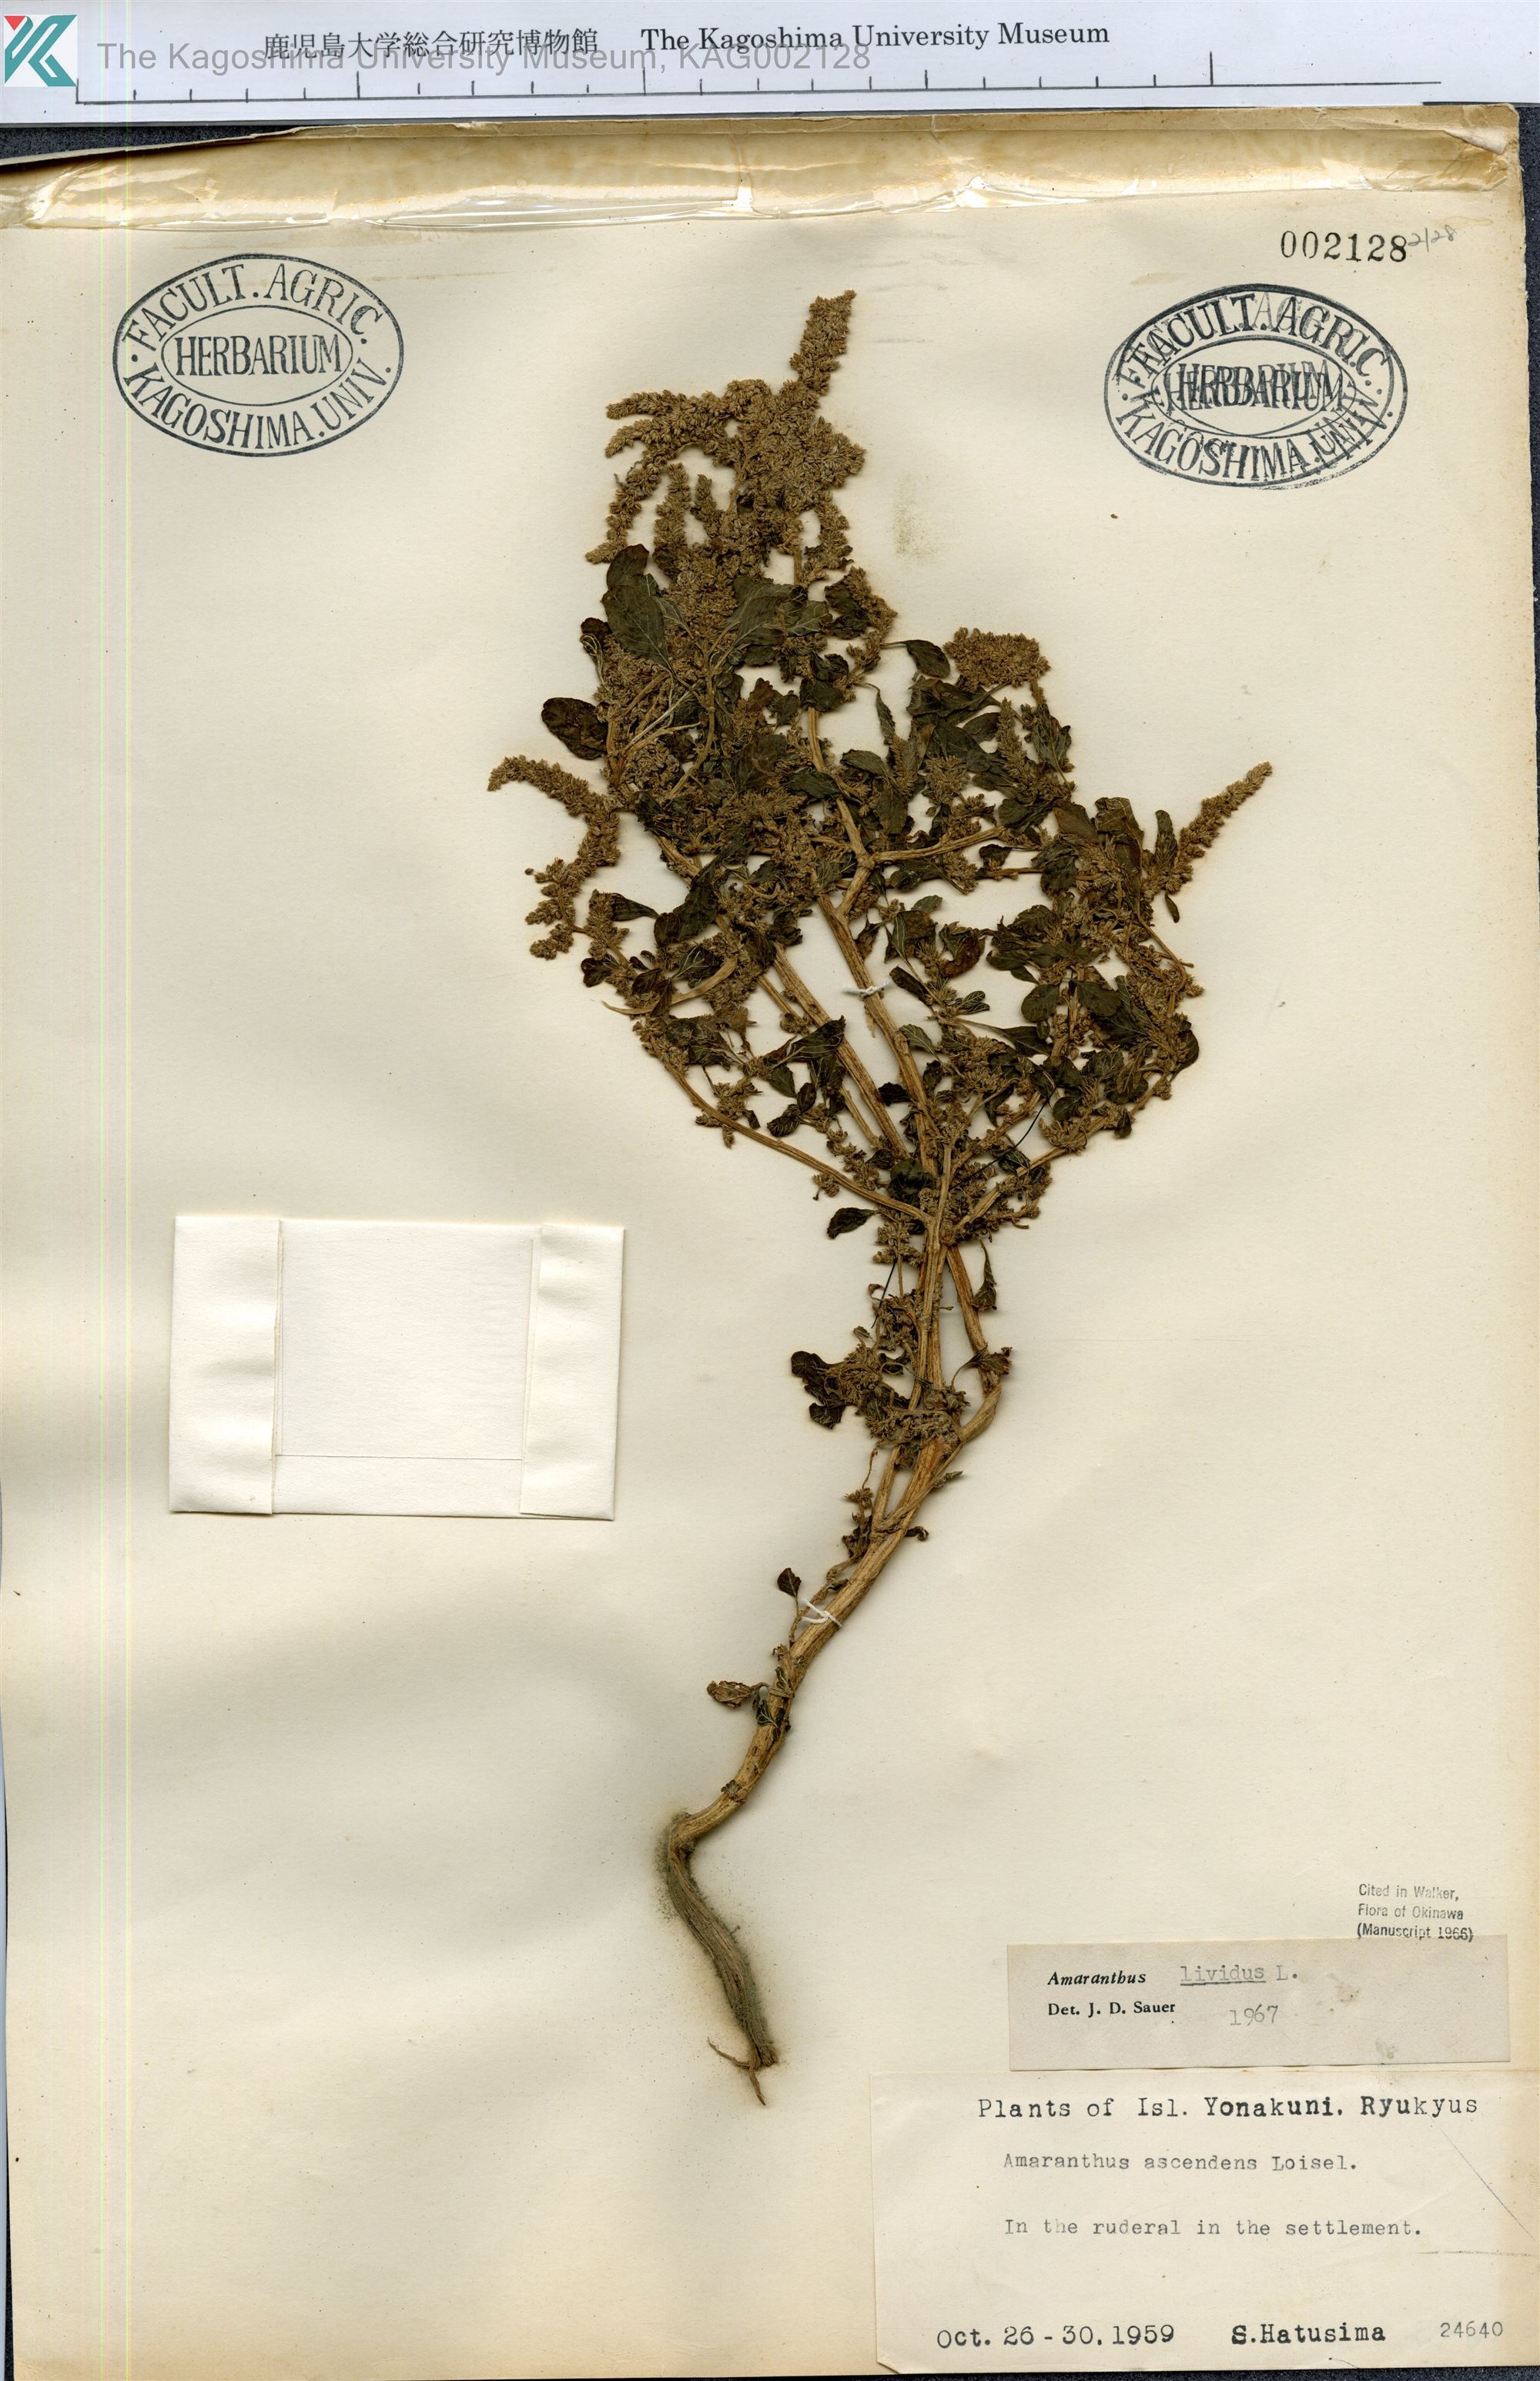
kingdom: Plantae
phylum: Tracheophyta
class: Magnoliopsida
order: Caryophyllales
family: Amaranthaceae
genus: Amaranthus
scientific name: Amaranthus blitum
